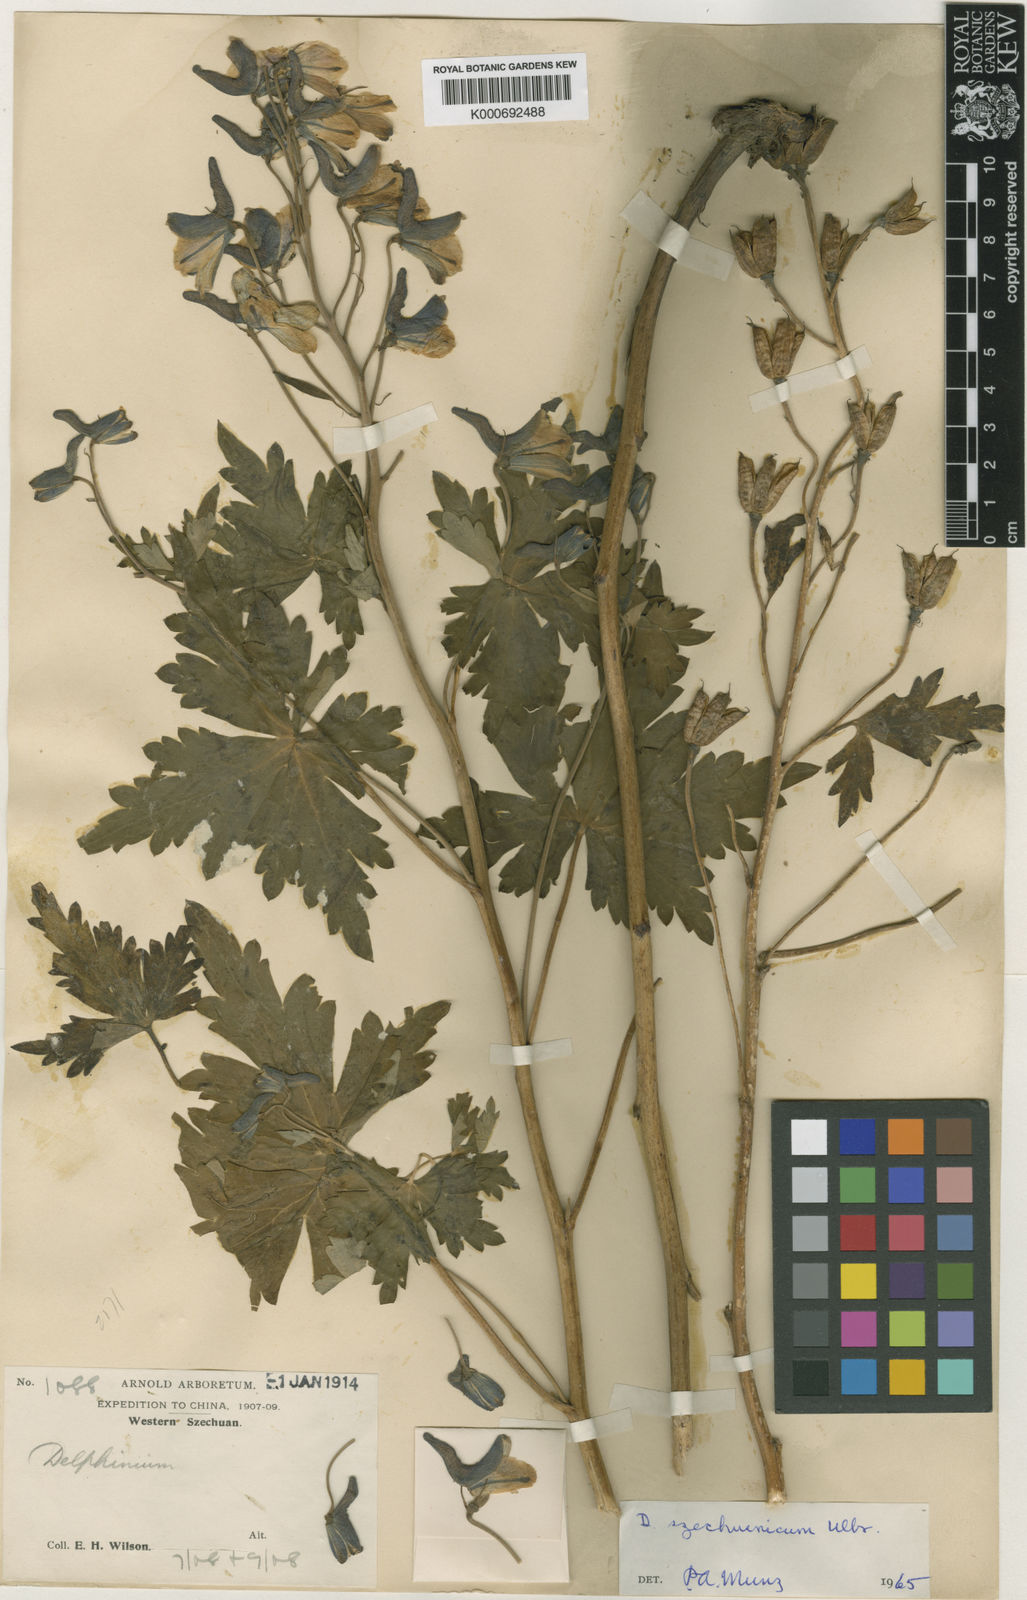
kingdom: Plantae
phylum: Tracheophyta
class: Magnoliopsida
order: Ranunculales
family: Ranunculaceae
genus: Delphinium
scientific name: Delphinium orthocentrum
